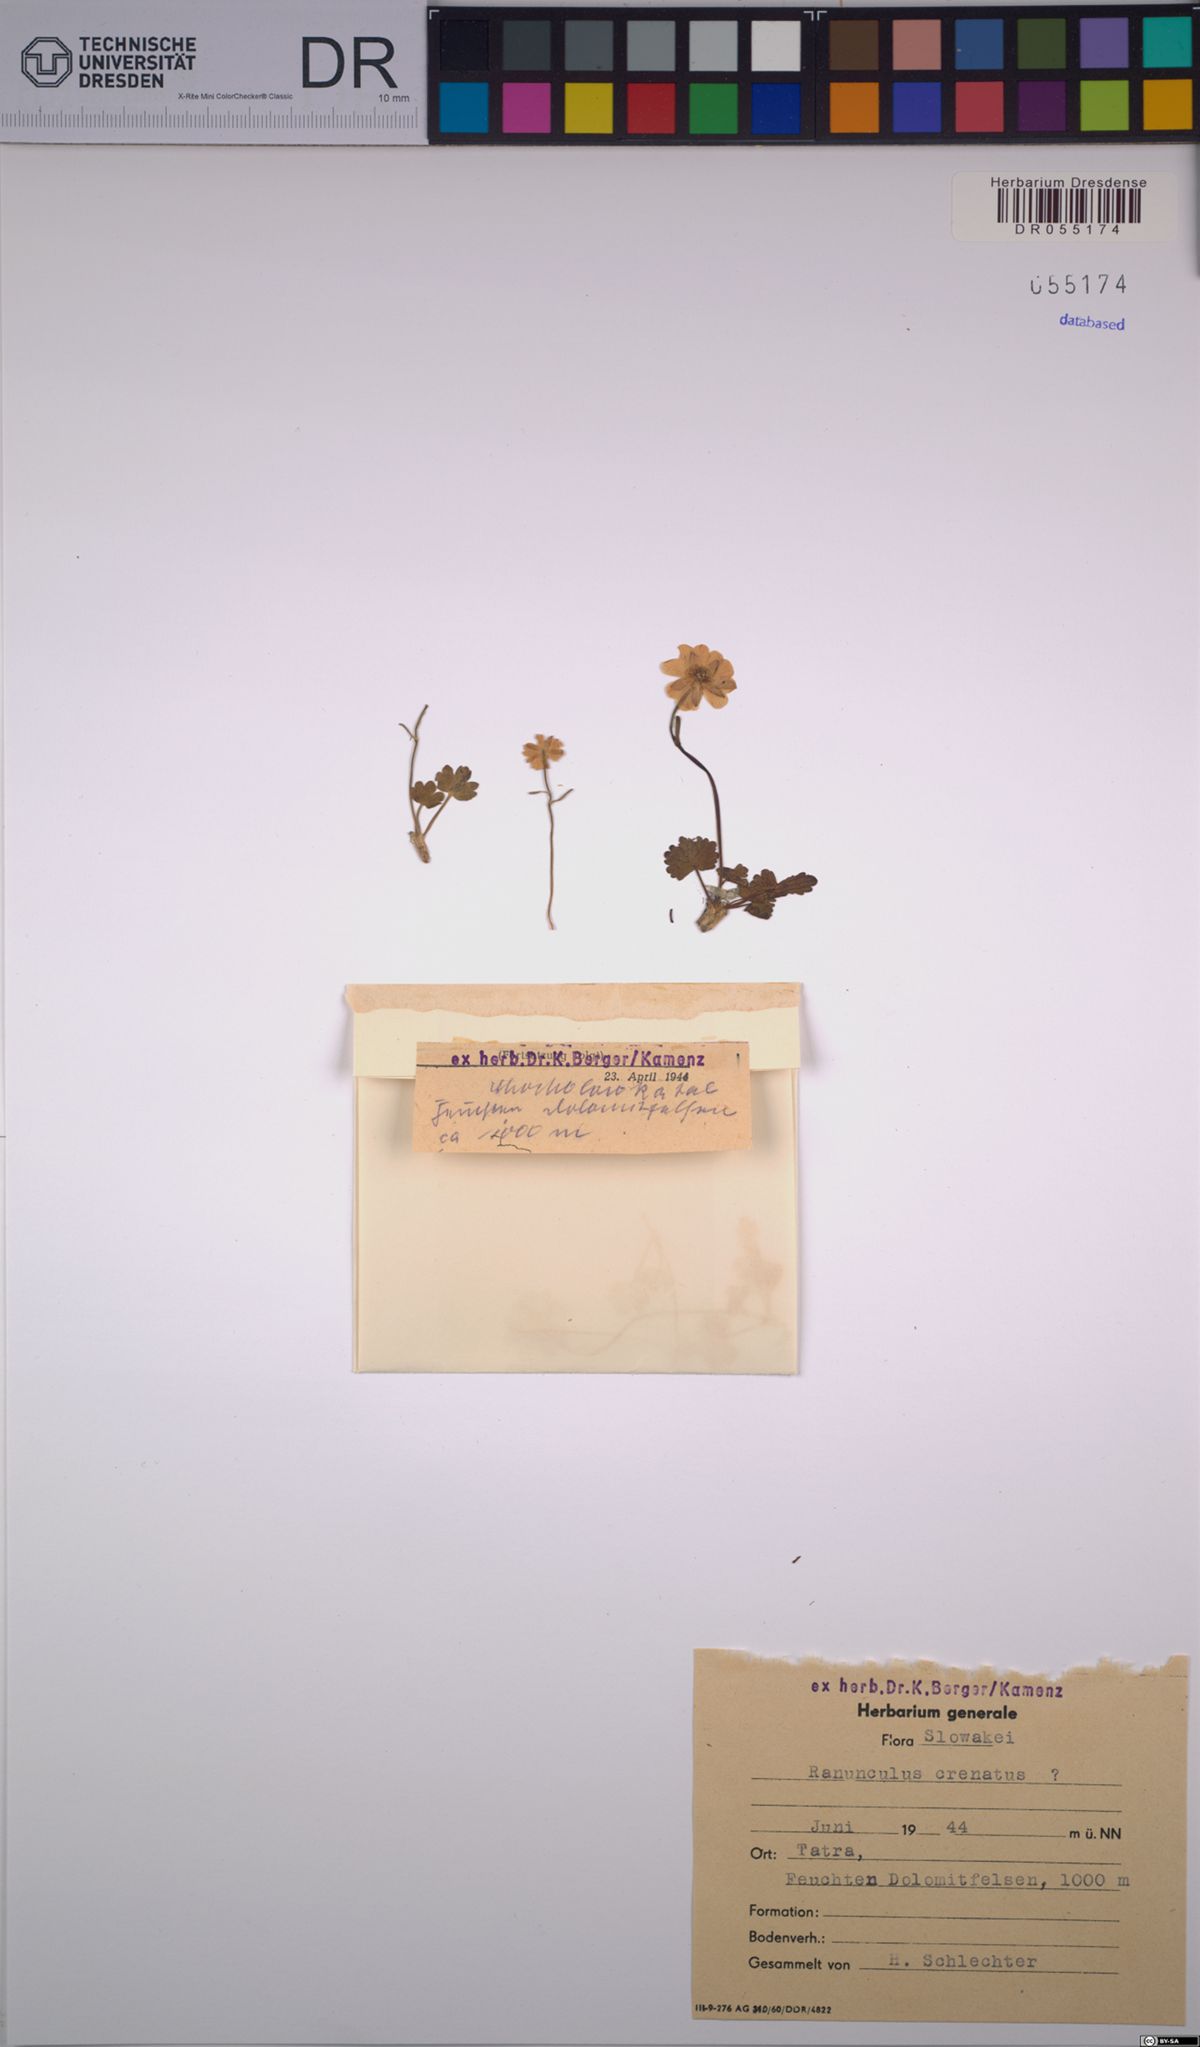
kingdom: Plantae
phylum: Tracheophyta
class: Magnoliopsida
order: Ranunculales
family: Ranunculaceae
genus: Ranunculus
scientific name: Ranunculus crenatus
